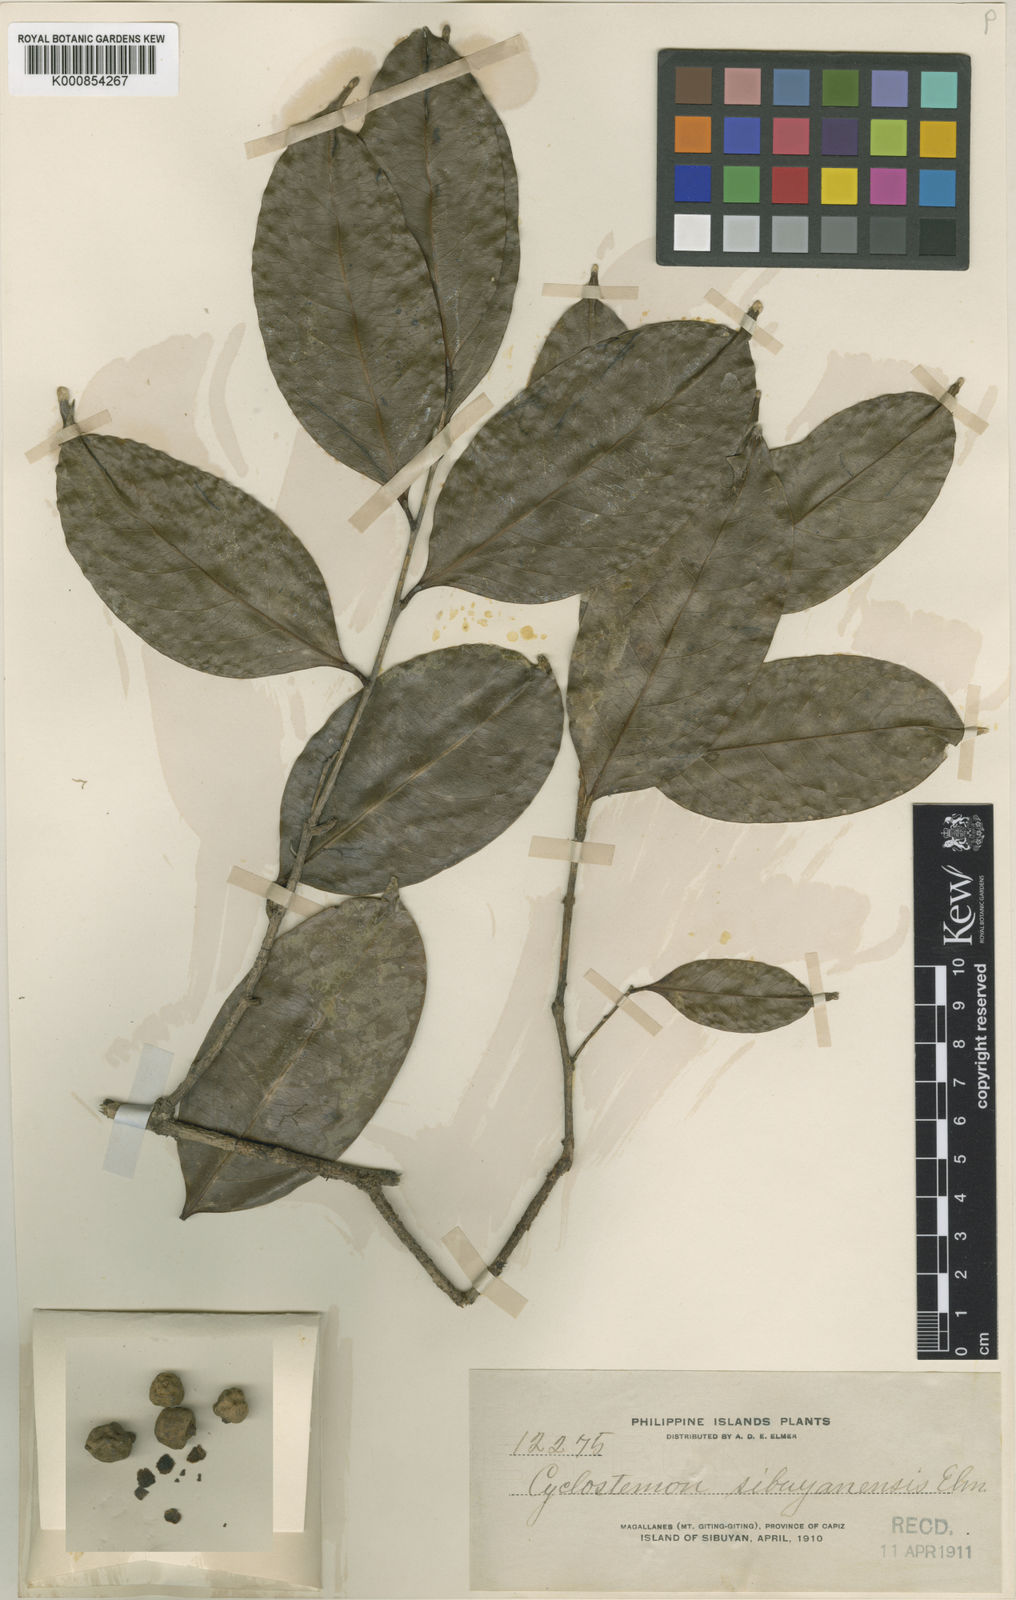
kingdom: Plantae
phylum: Tracheophyta
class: Magnoliopsida
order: Malpighiales
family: Putranjivaceae
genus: Drypetes
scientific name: Drypetes sibuyanensis
